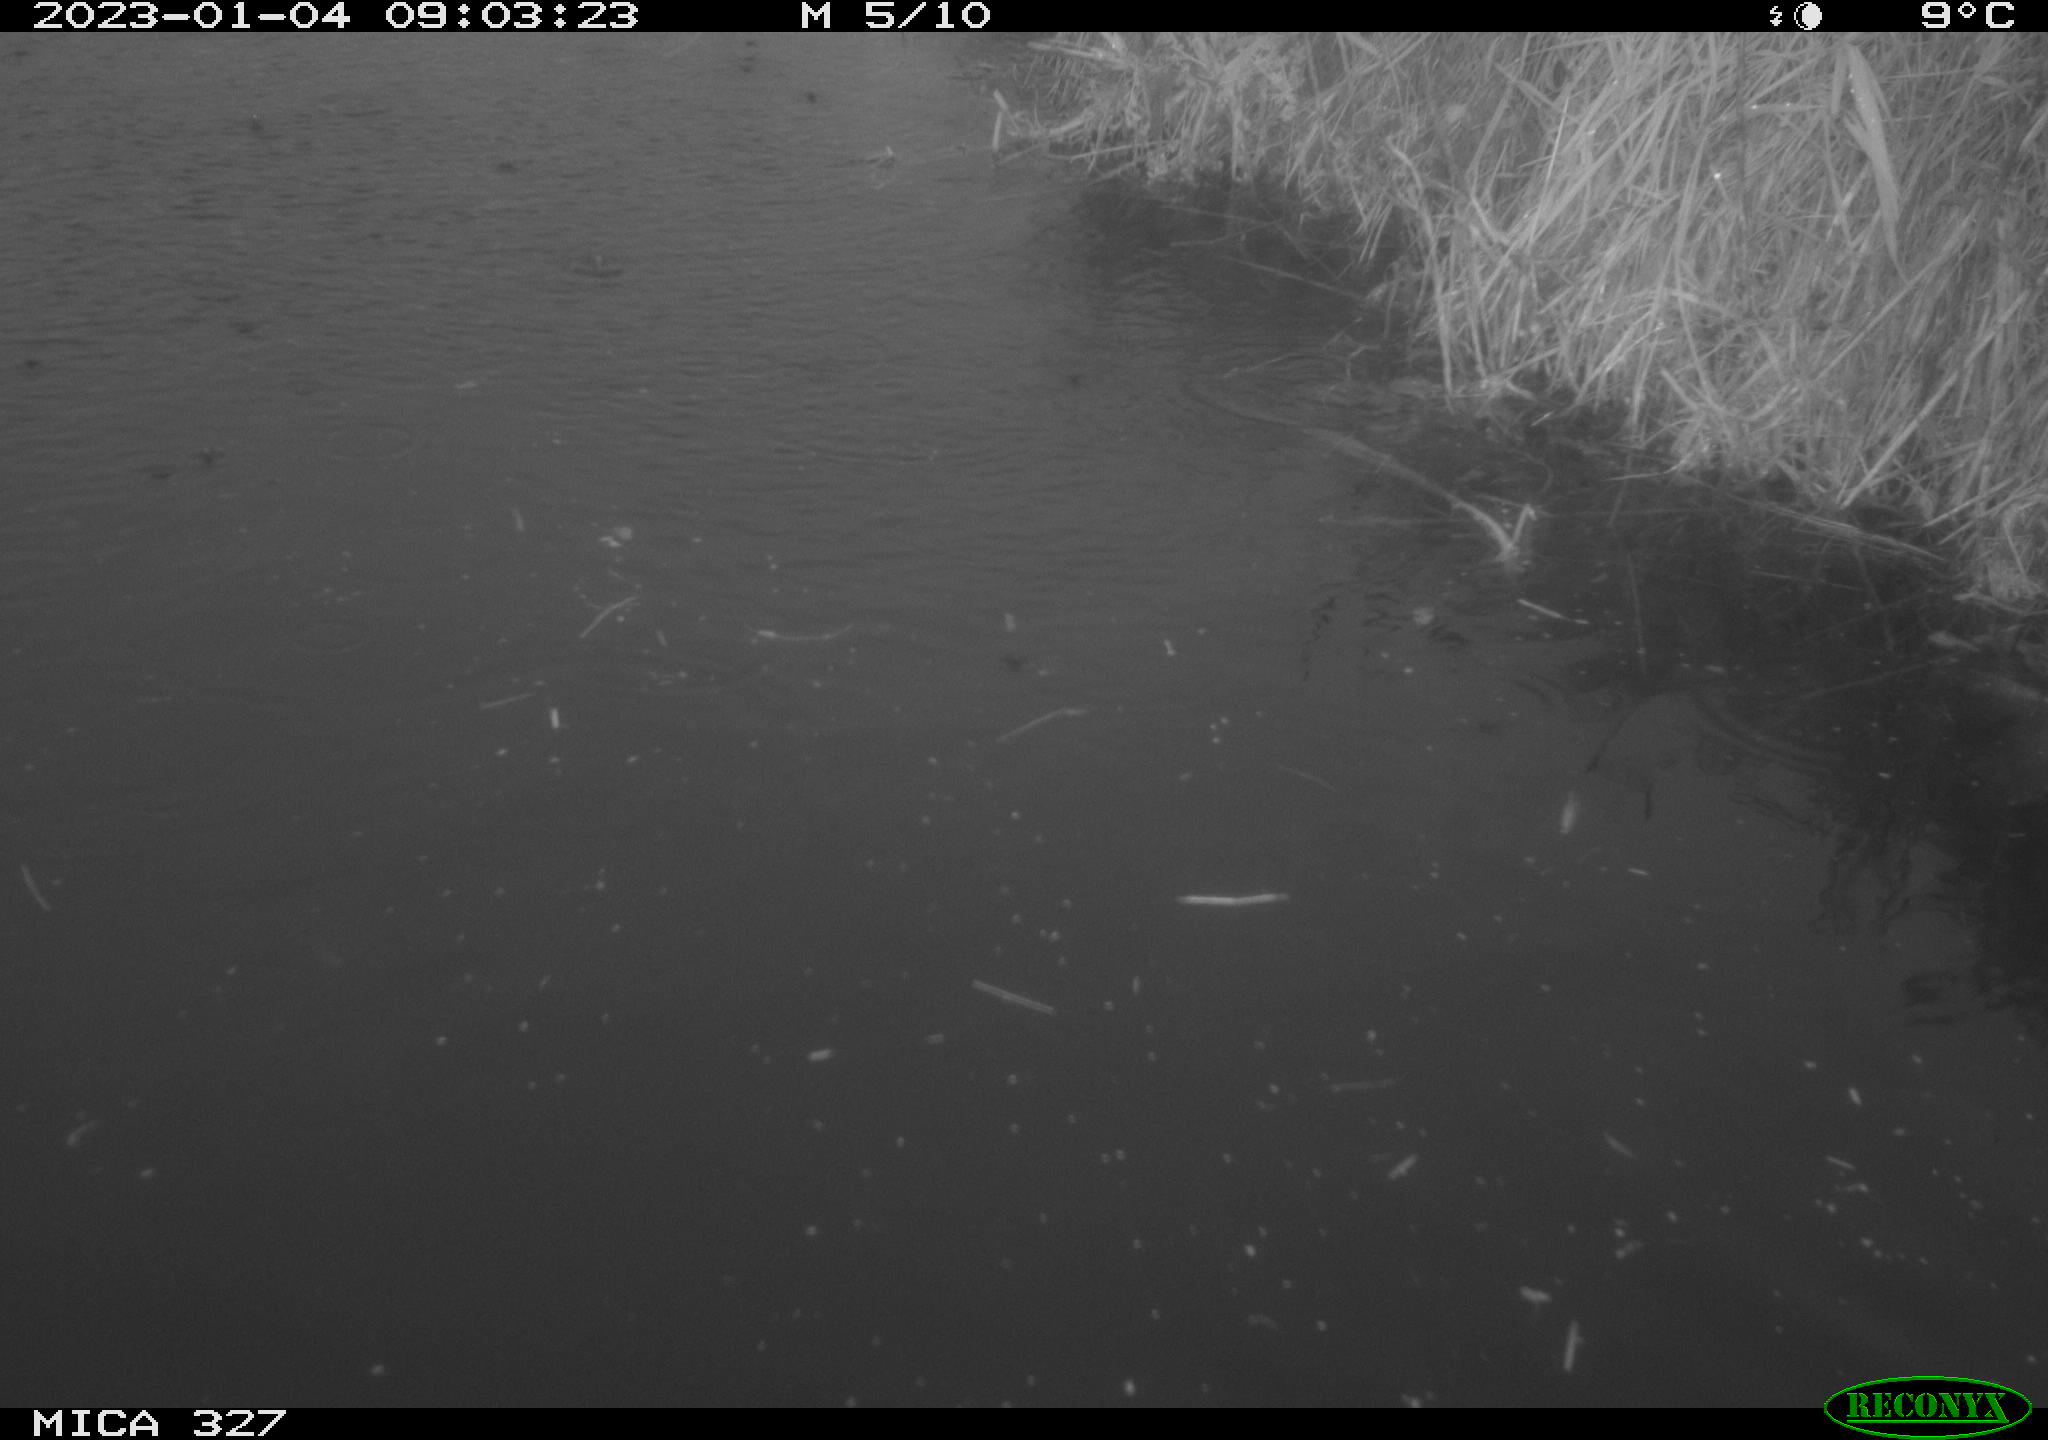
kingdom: Animalia
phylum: Chordata
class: Aves
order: Gruiformes
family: Rallidae
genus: Gallinula
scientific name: Gallinula chloropus
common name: Common moorhen
